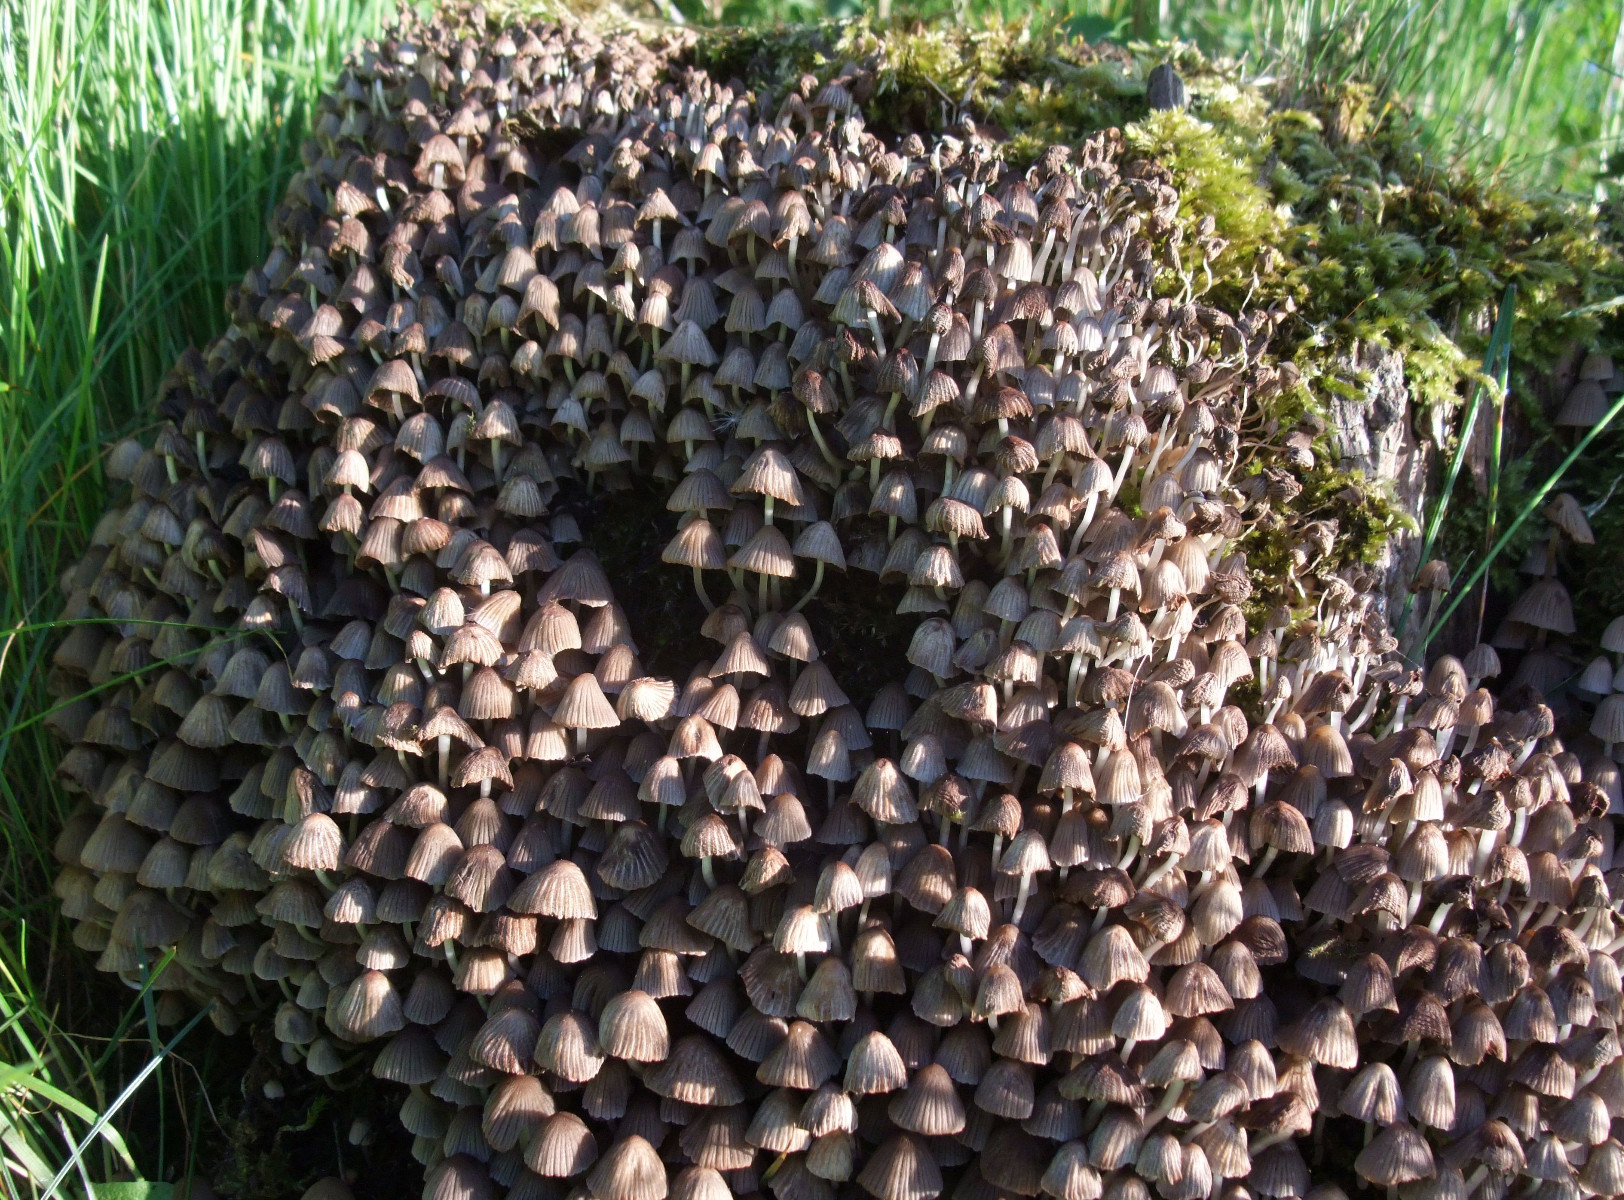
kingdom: Fungi
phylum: Basidiomycota
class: Agaricomycetes
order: Agaricales
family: Psathyrellaceae
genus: Coprinellus
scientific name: Coprinellus disseminatus
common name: bredsået blækhat
